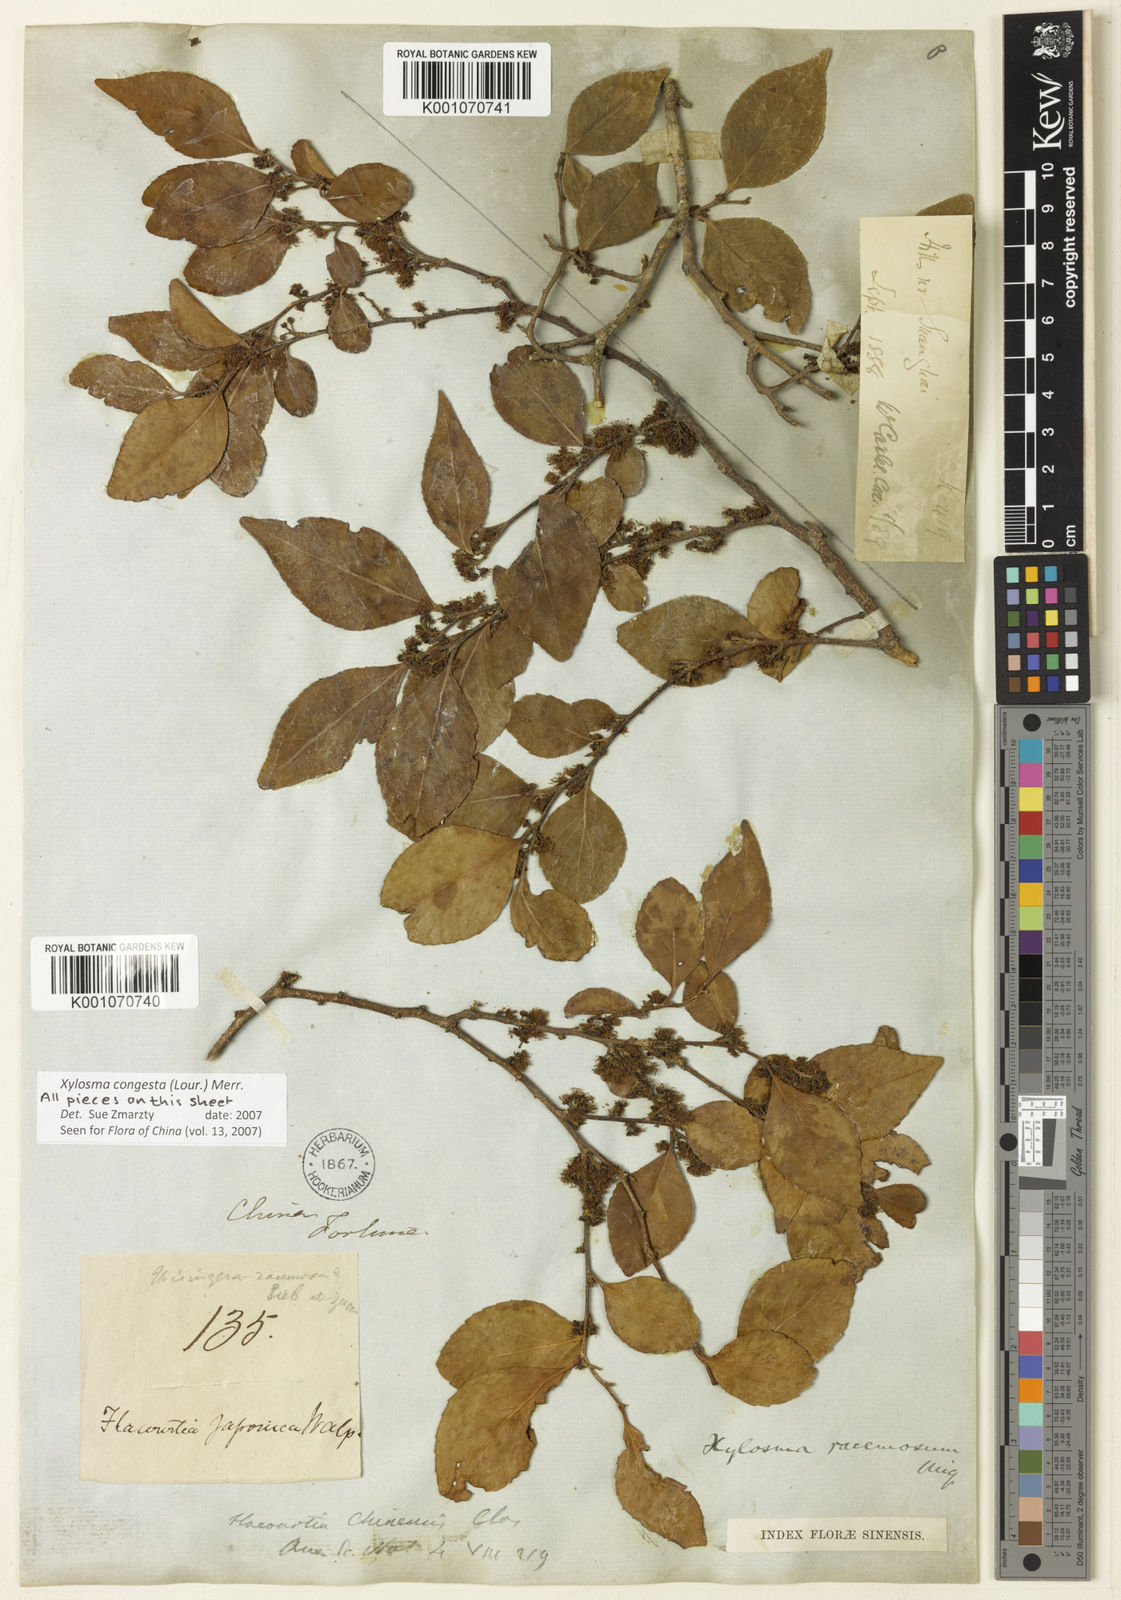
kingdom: Plantae
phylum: Tracheophyta
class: Magnoliopsida
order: Malpighiales
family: Salicaceae
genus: Xylosma
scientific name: Xylosma racemosum
